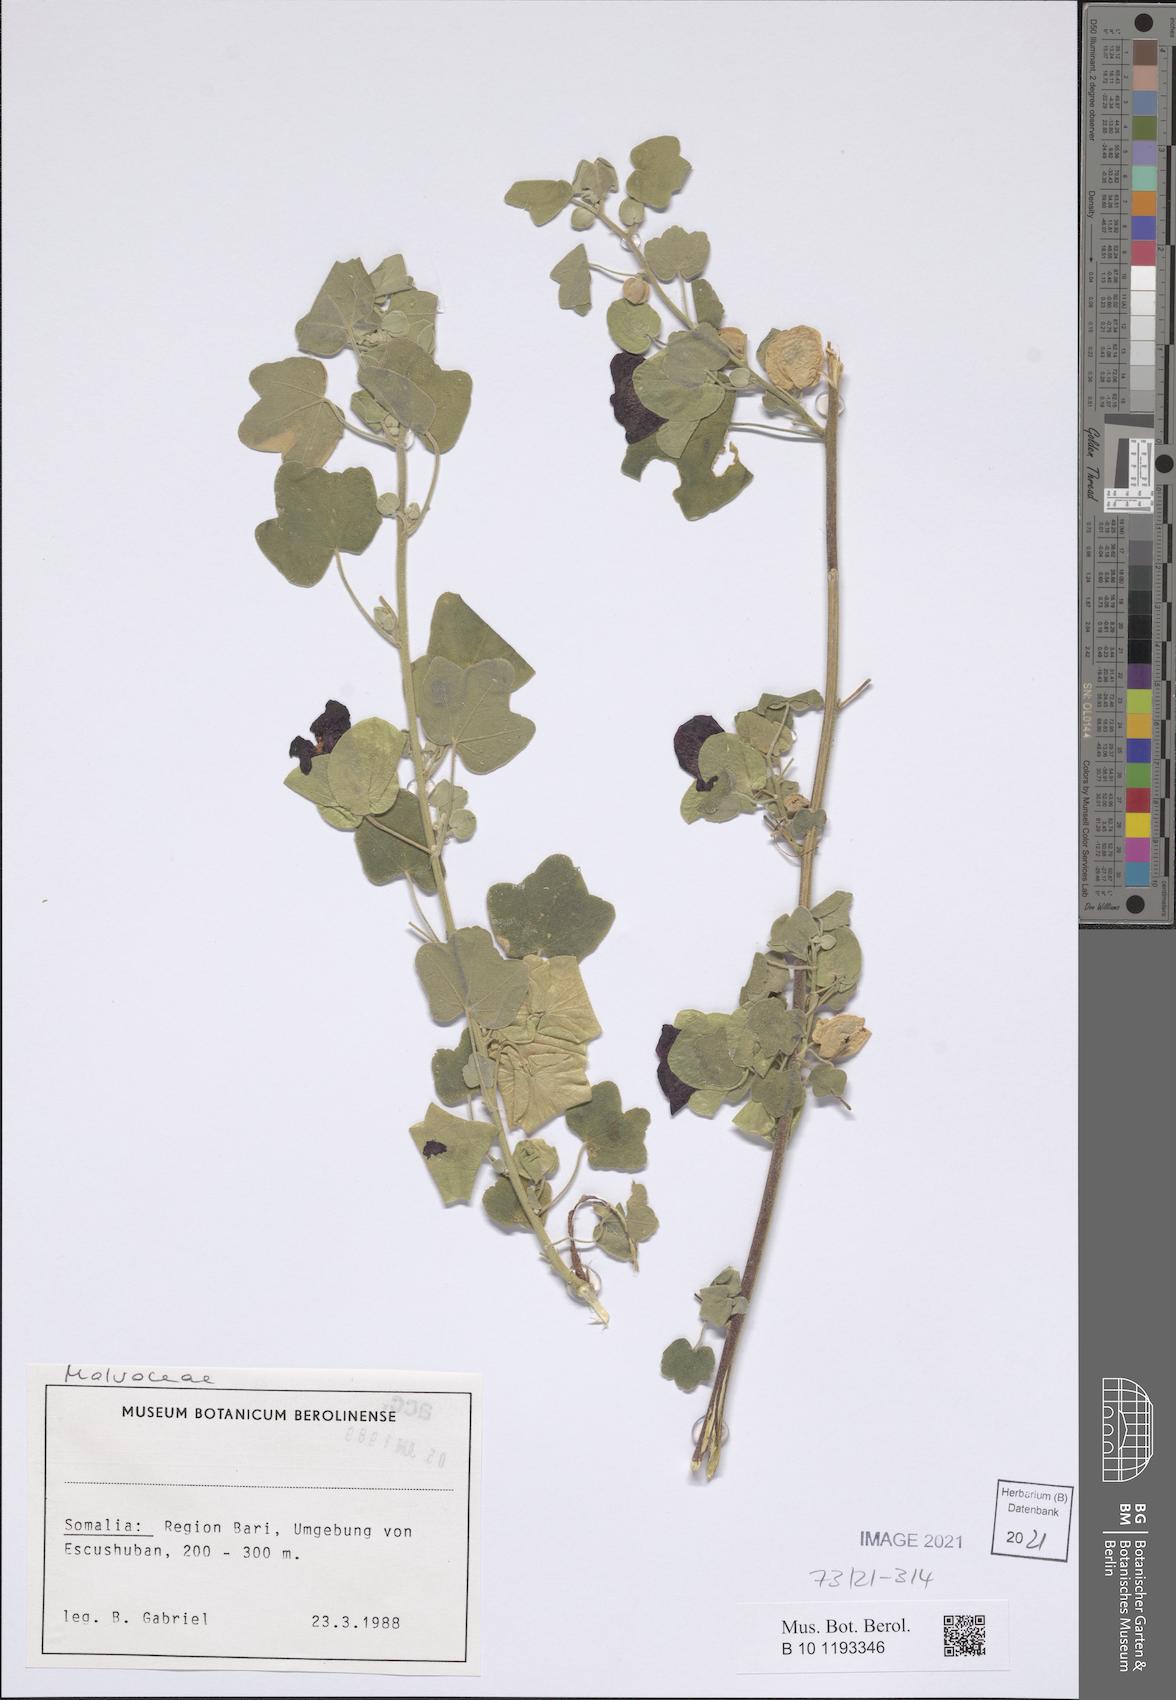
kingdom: Plantae
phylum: Tracheophyta
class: Magnoliopsida
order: Malvales
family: Malvaceae
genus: Senra
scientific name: Senra incana
